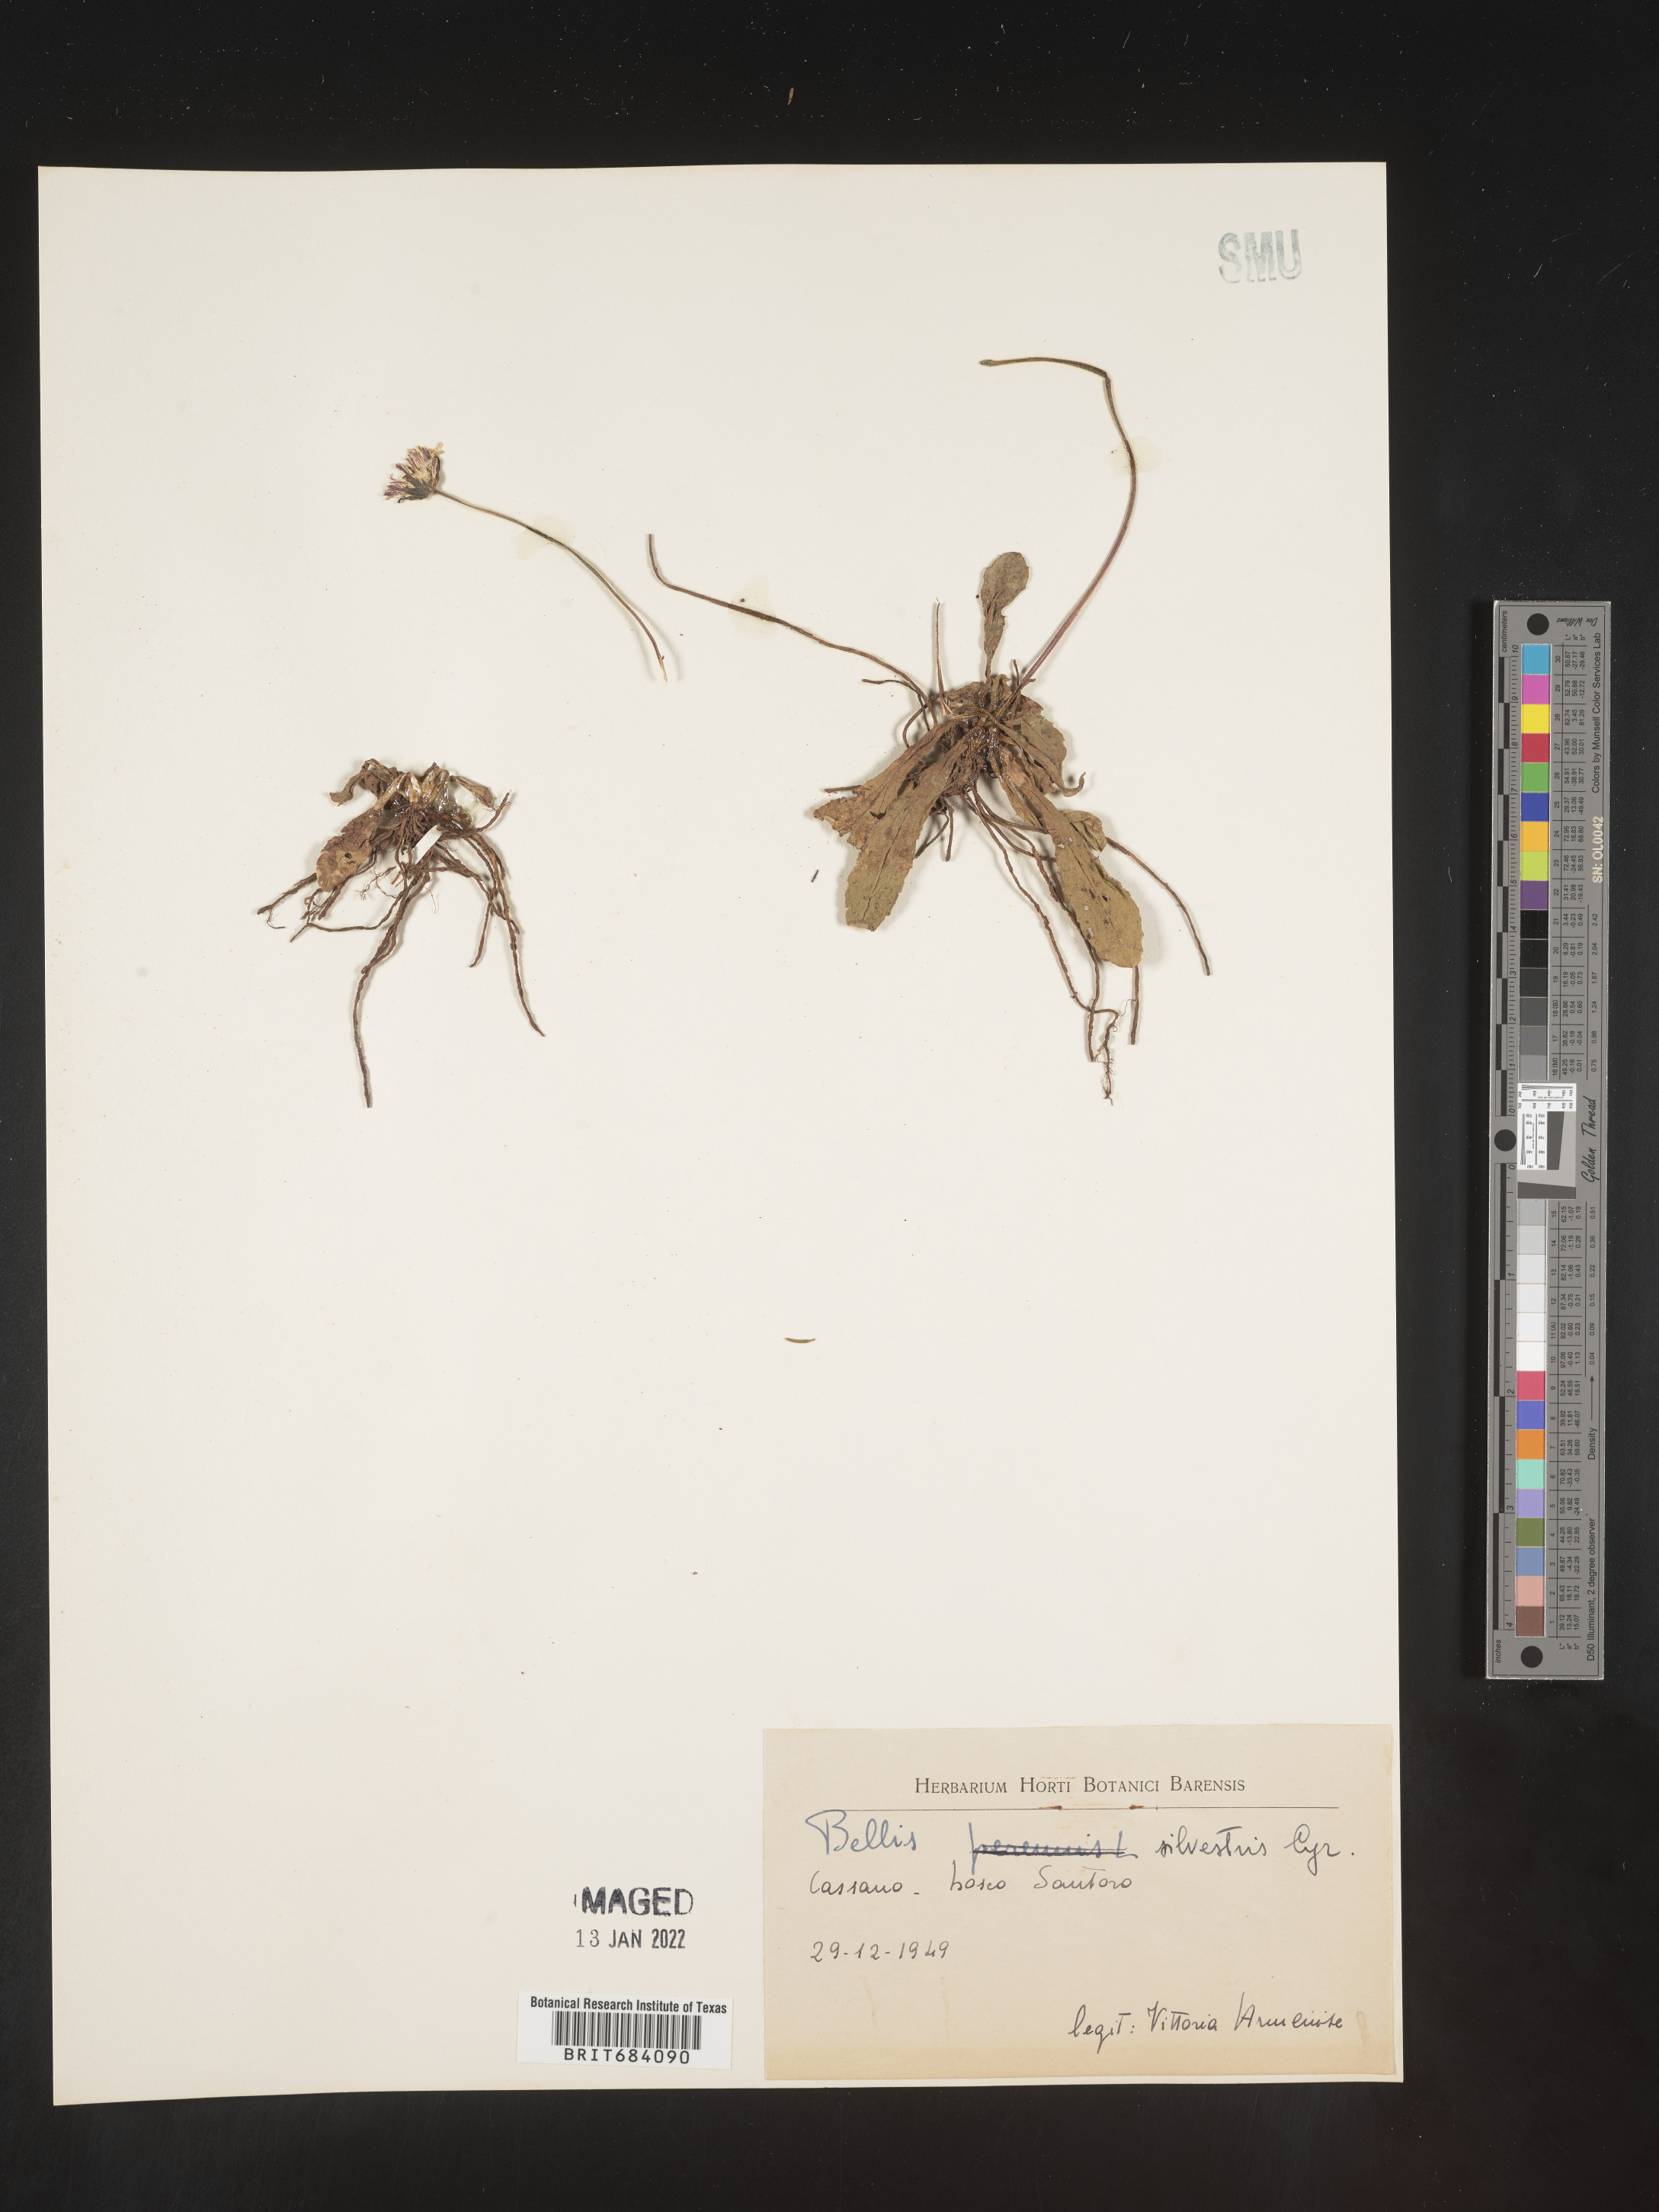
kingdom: Plantae
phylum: Tracheophyta
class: Magnoliopsida
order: Asterales
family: Asteraceae
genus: Bellis
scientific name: Bellis
